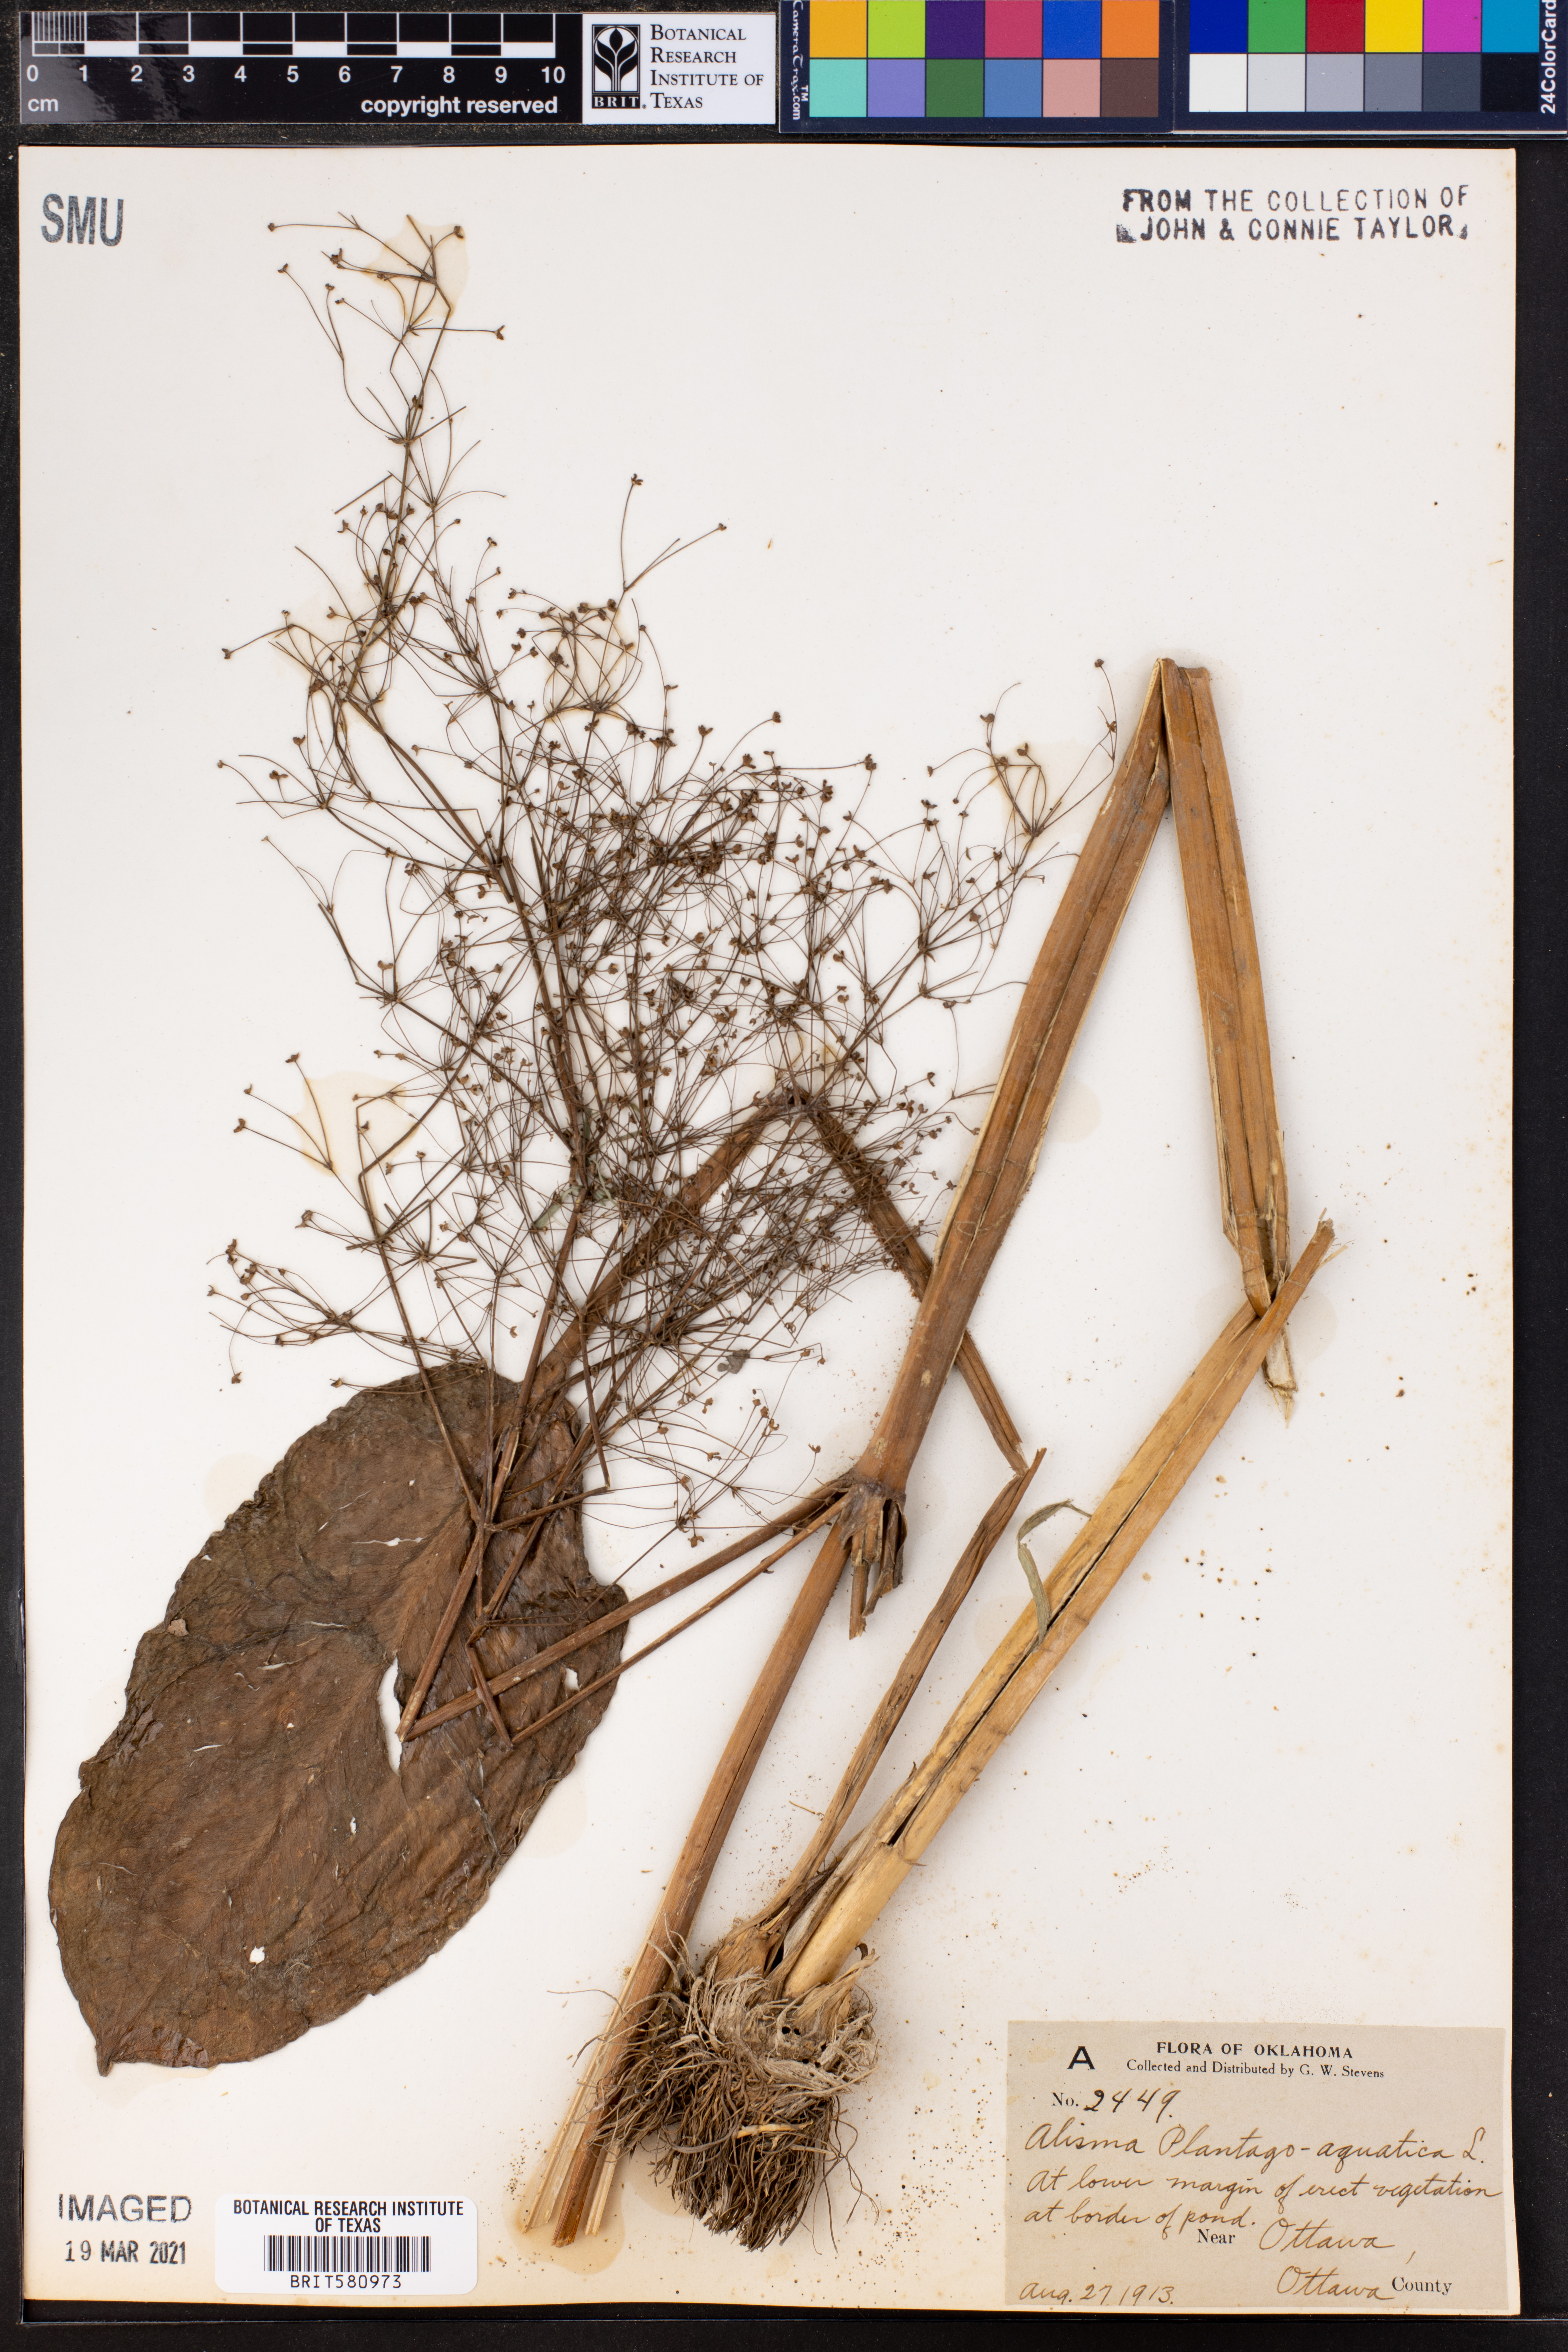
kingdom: Plantae
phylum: Tracheophyta
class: Liliopsida
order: Alismatales
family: Alismataceae
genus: Alisma
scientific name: Alisma plantago-aquatica
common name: Water-plantain
